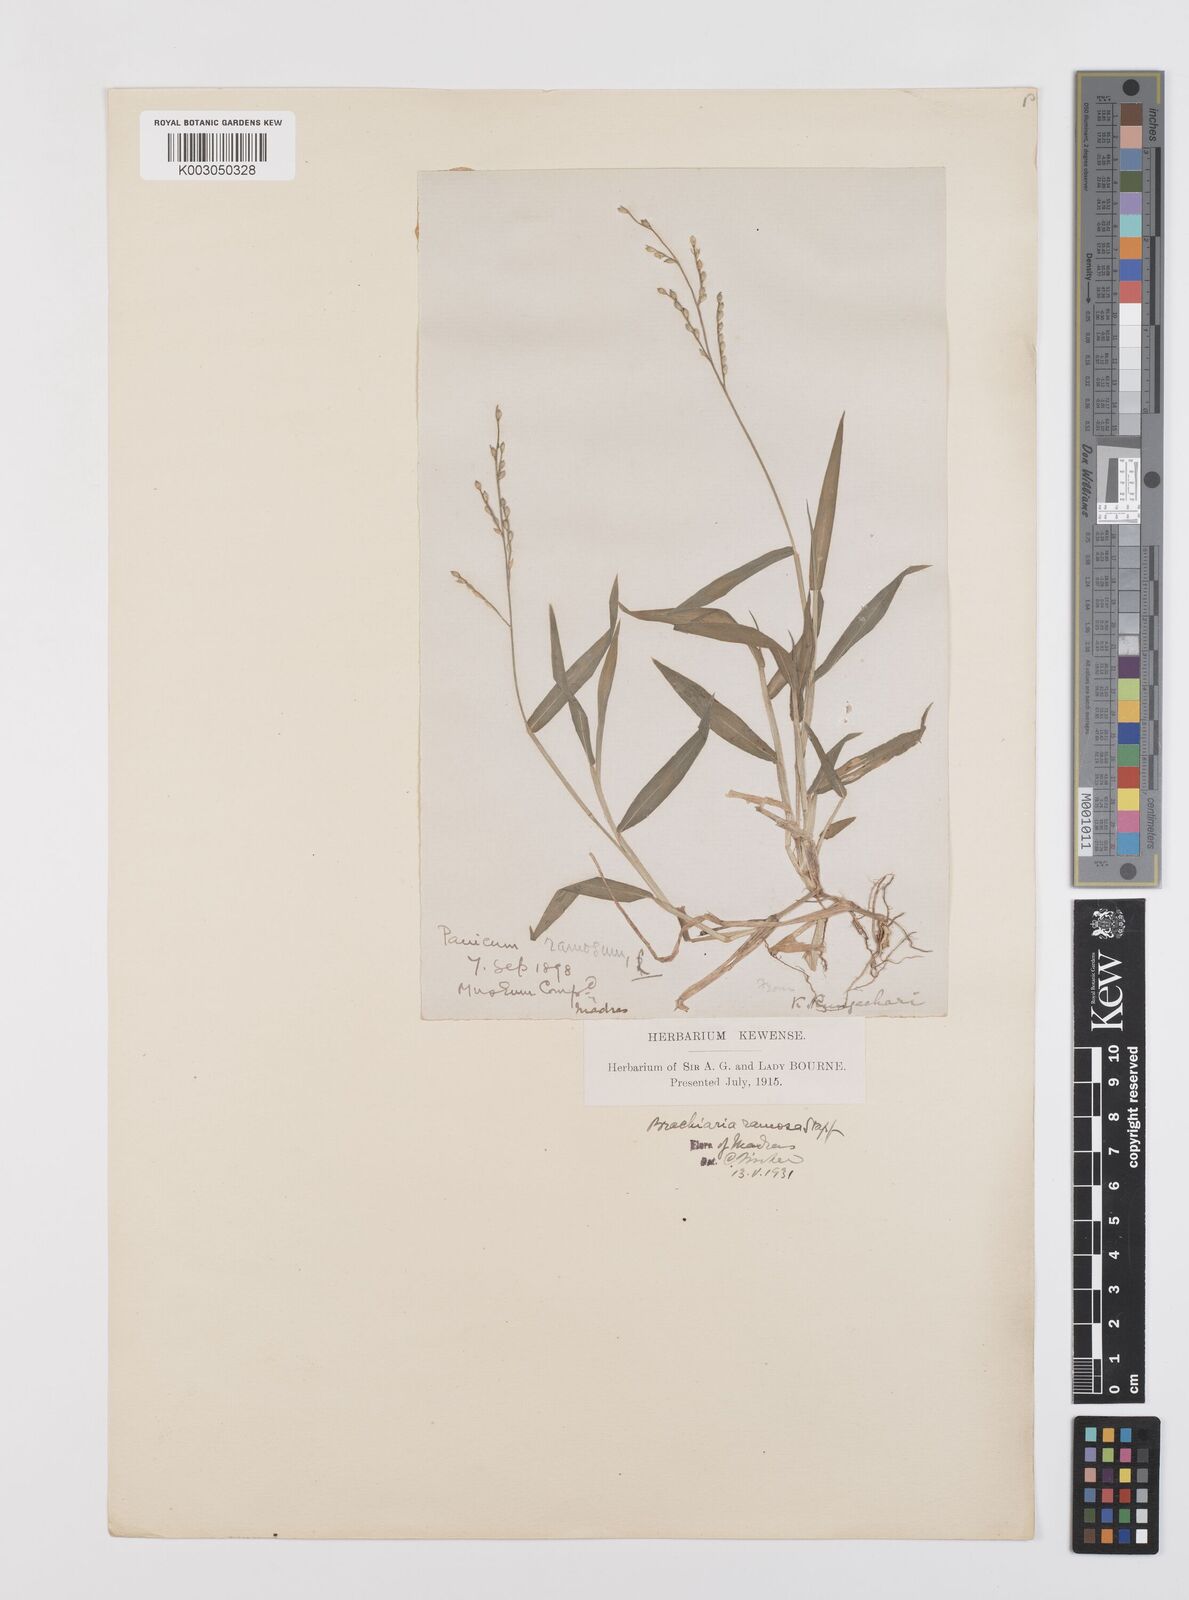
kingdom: Plantae
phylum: Tracheophyta
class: Liliopsida
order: Poales
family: Poaceae
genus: Urochloa
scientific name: Urochloa ramosa
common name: Browntop millet
